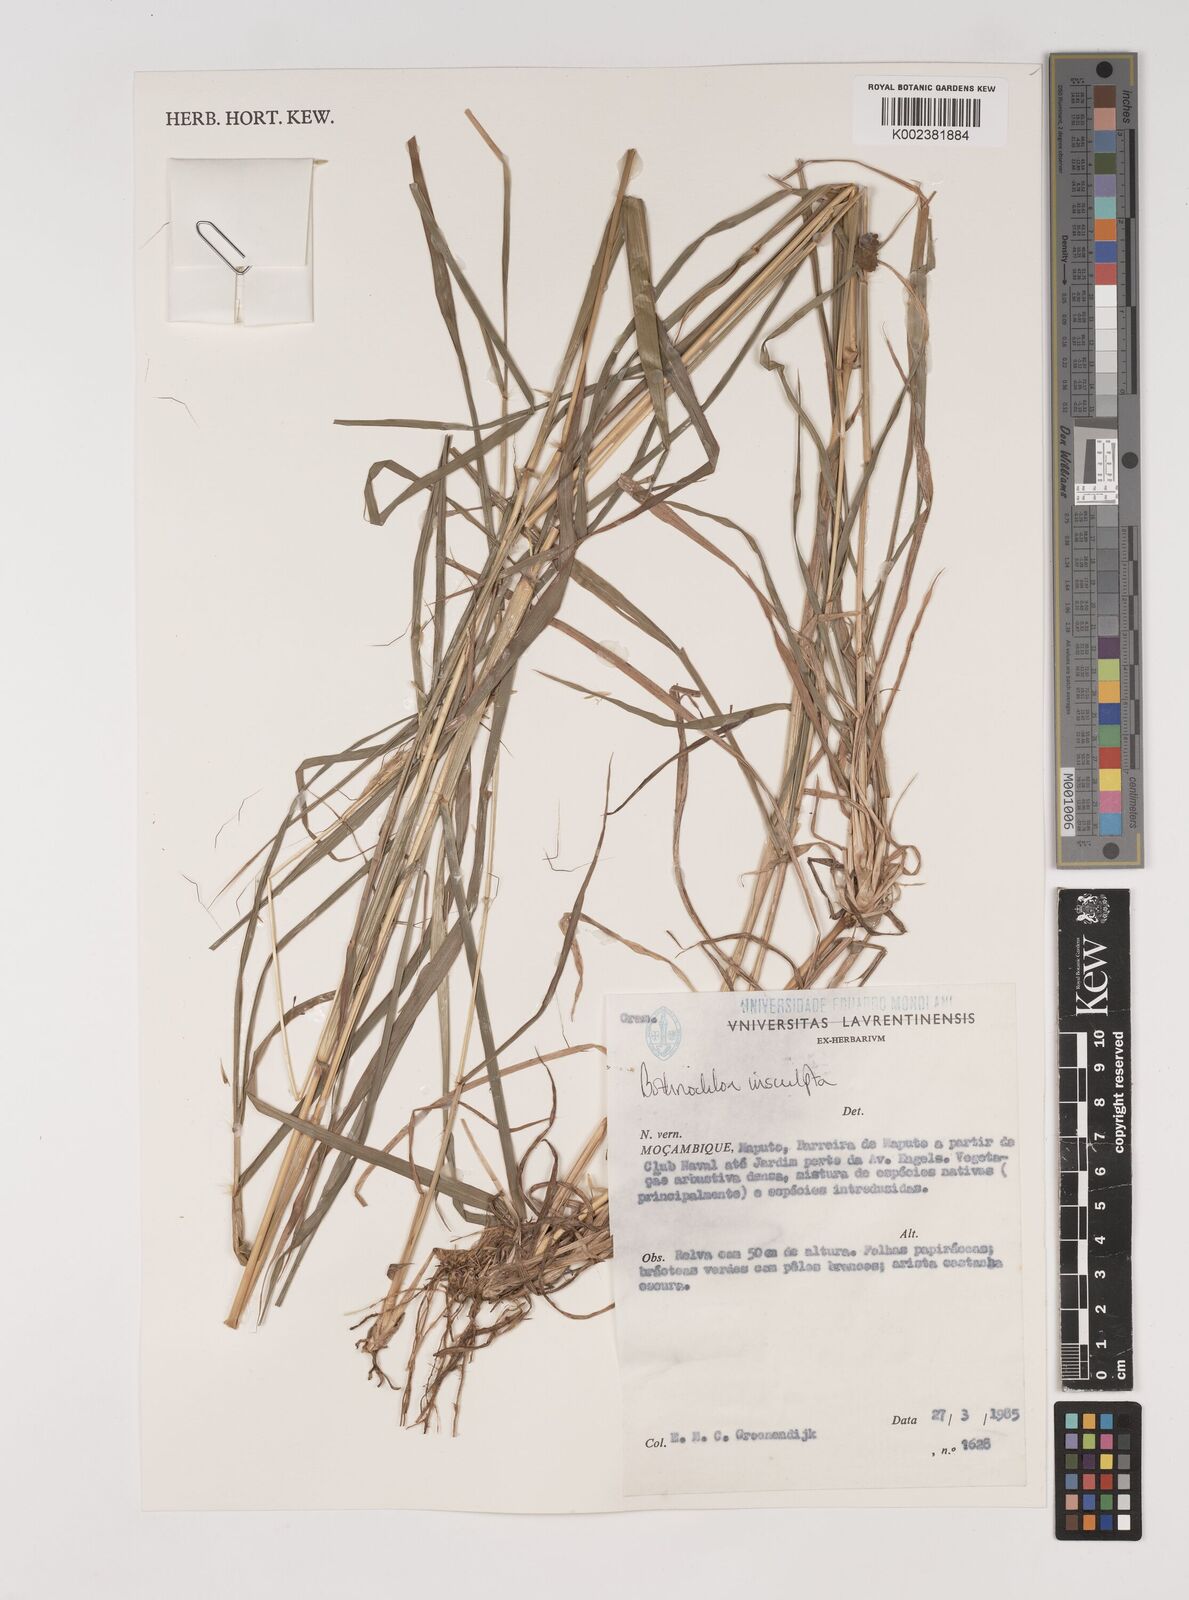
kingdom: Plantae
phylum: Tracheophyta
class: Liliopsida
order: Poales
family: Poaceae
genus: Bothriochloa
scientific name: Bothriochloa insculpta
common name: Creeping-bluegrass
